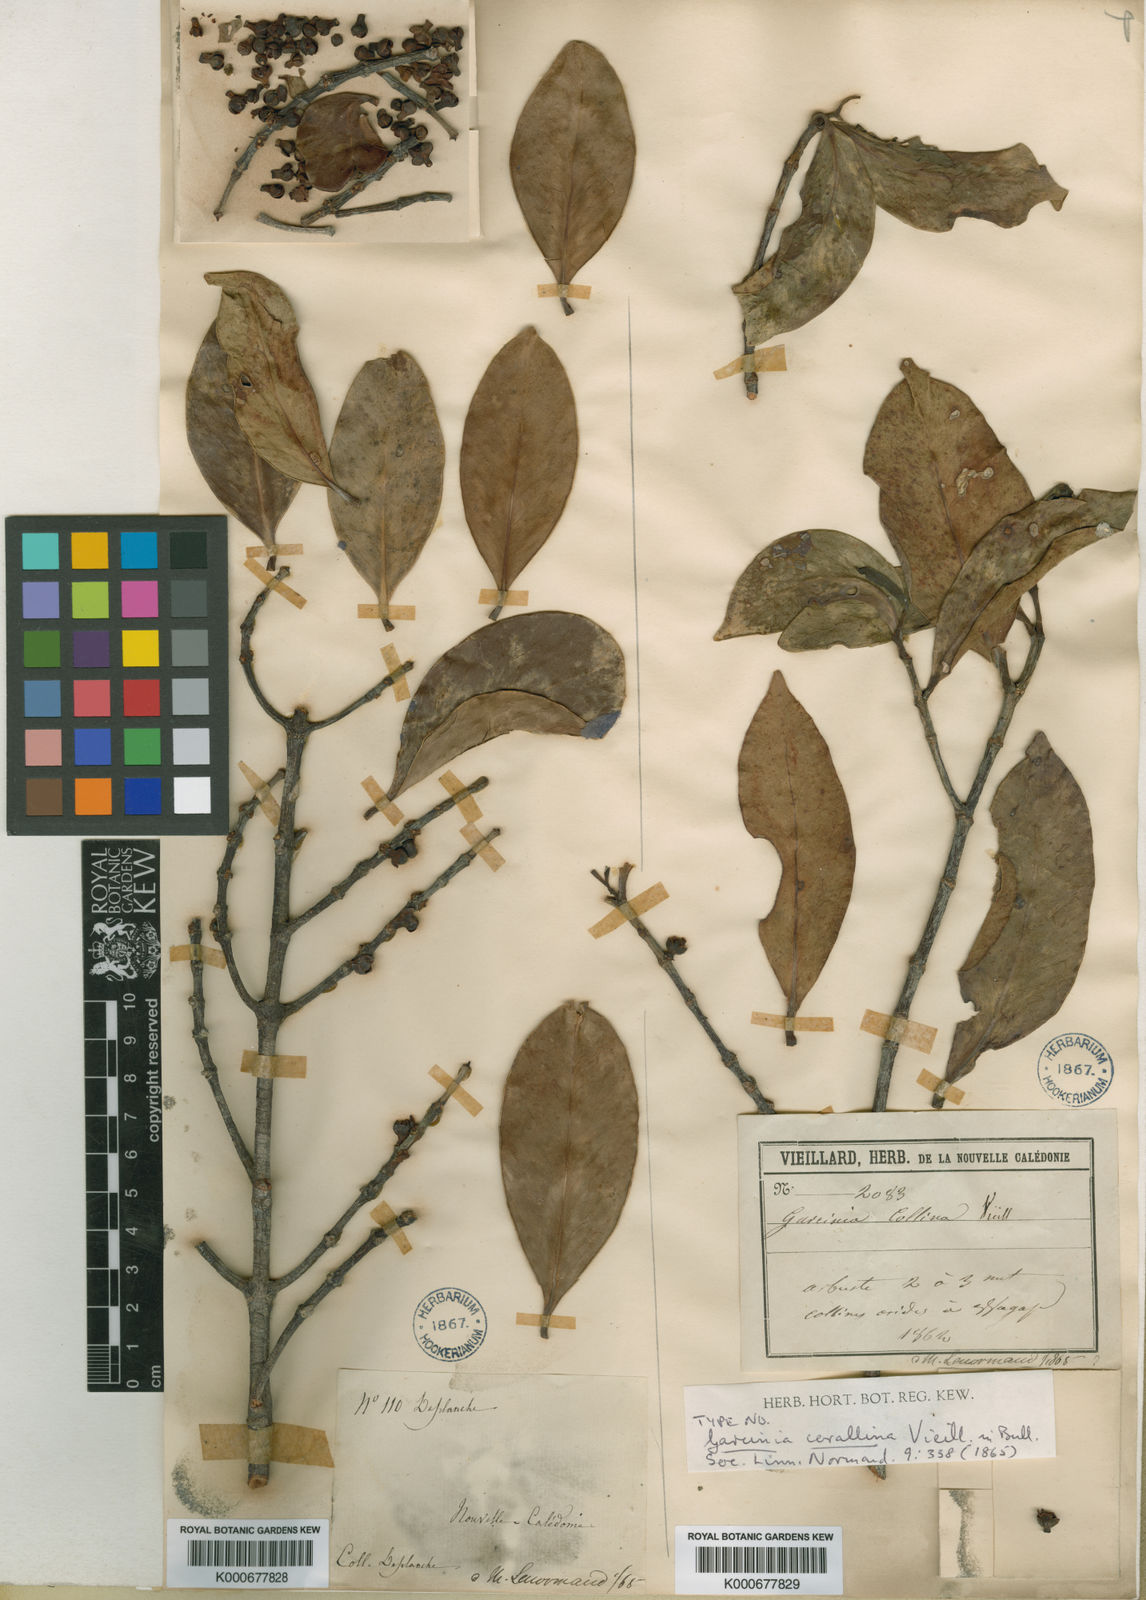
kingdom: Plantae
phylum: Tracheophyta
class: Magnoliopsida
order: Malpighiales
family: Clusiaceae
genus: Garcinia
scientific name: Garcinia corallina
